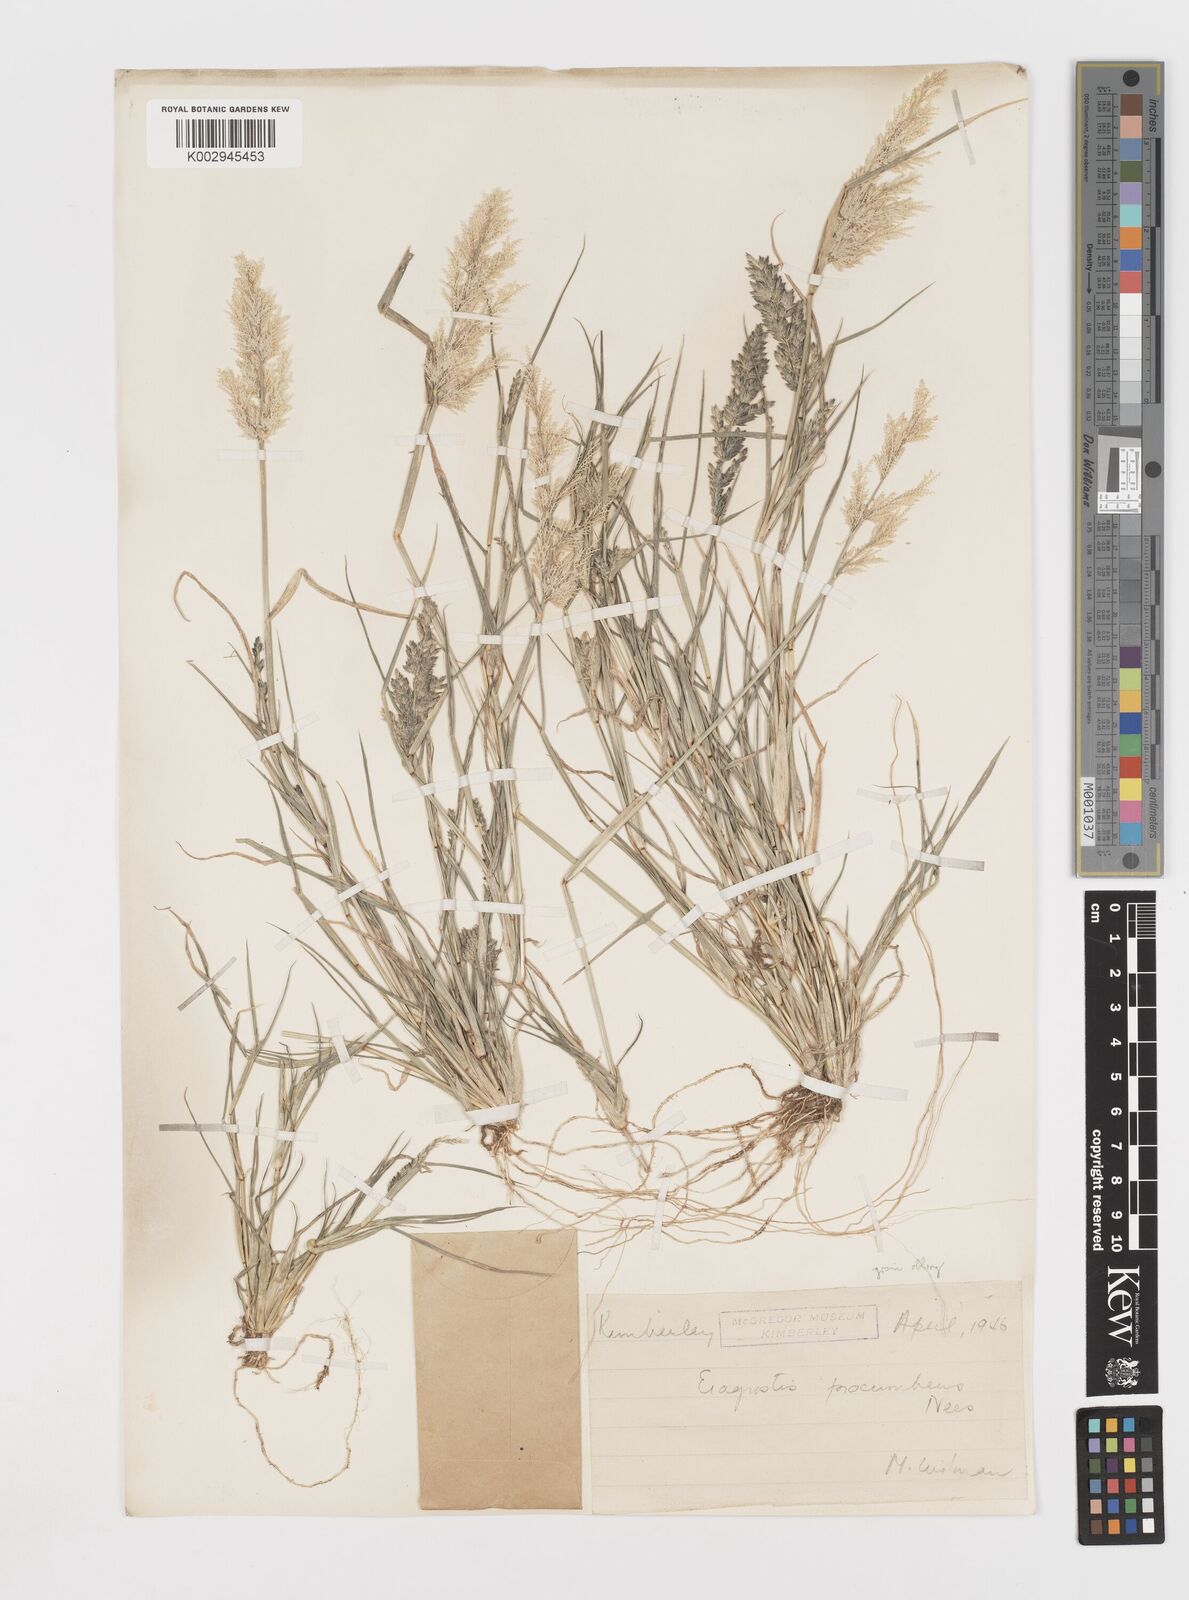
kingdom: Plantae
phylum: Tracheophyta
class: Liliopsida
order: Poales
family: Poaceae
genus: Eragrostis
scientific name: Eragrostis procumbens
